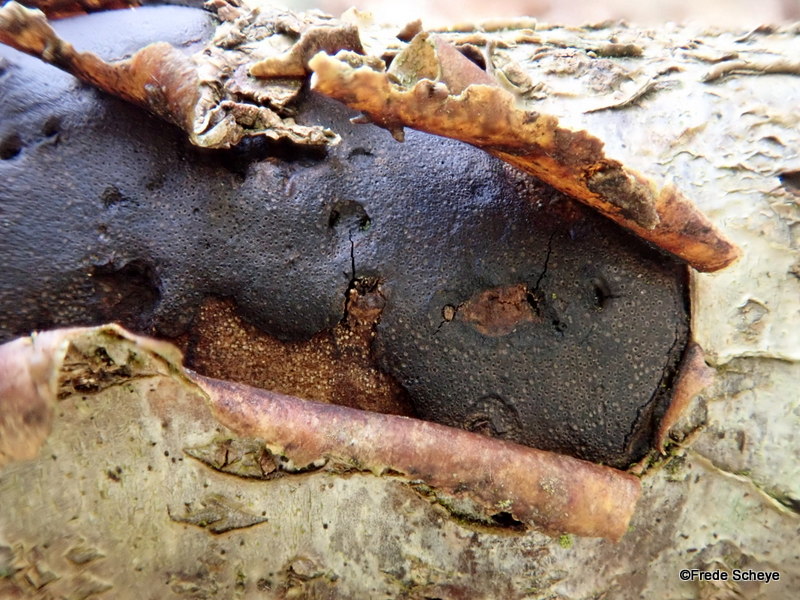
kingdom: Fungi
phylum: Ascomycota
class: Sordariomycetes
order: Xylariales
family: Diatrypaceae
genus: Diatrype
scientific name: Diatrype decorticata
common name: barksprænger-kulskorpe
